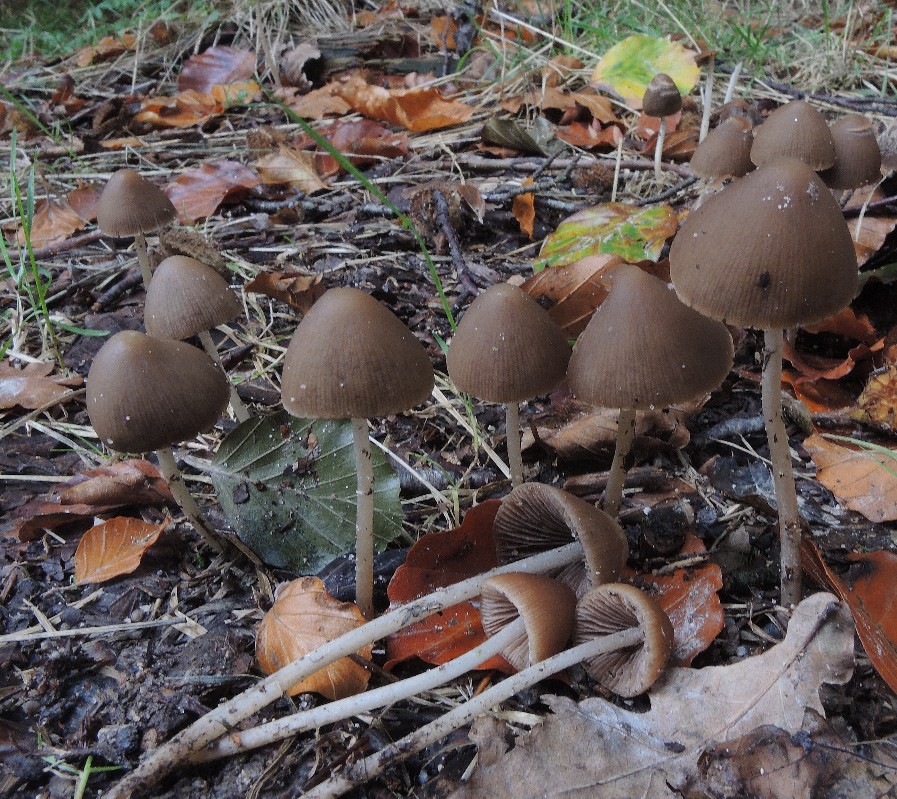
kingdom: Fungi
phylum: Basidiomycota
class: Agaricomycetes
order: Agaricales
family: Psathyrellaceae
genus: Parasola
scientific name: Parasola conopilea
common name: kegle-hjulhat
